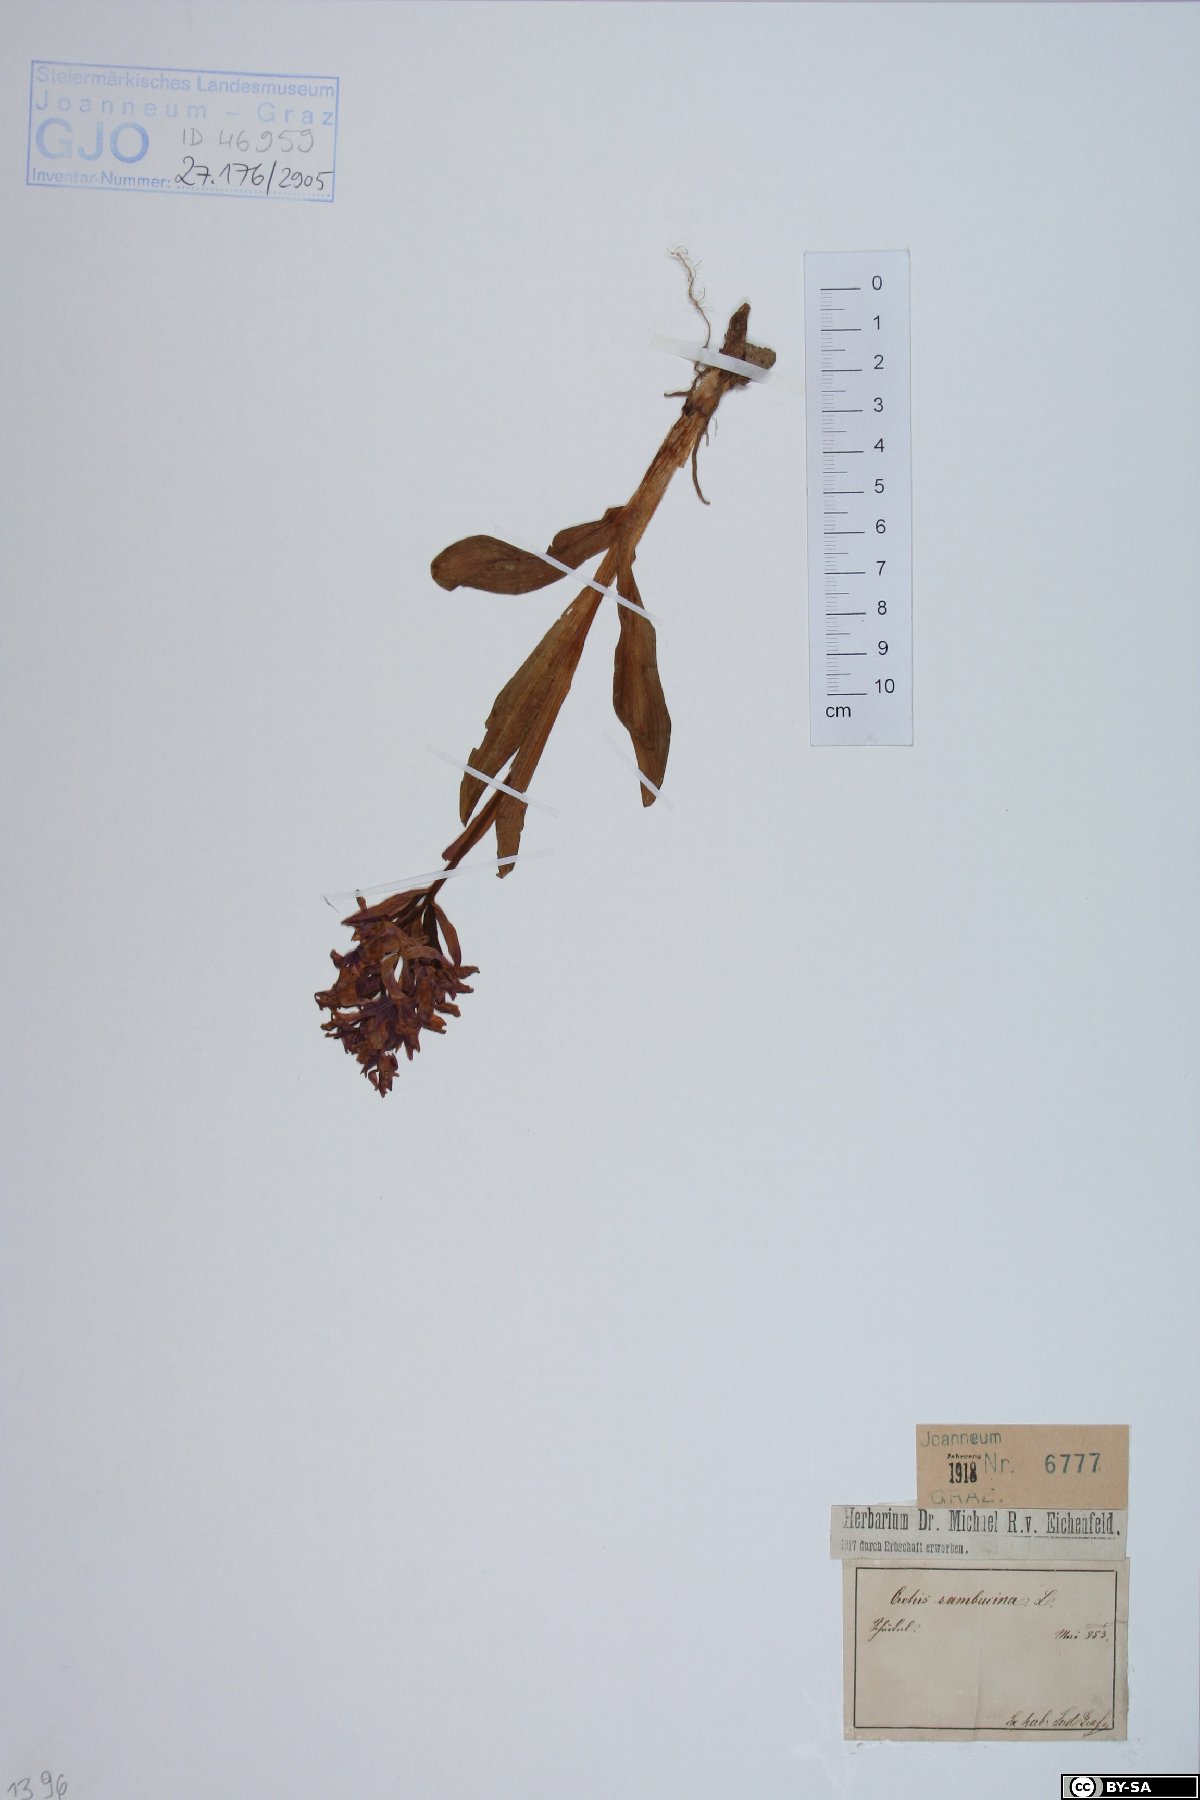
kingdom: Plantae
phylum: Tracheophyta
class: Liliopsida
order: Asparagales
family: Orchidaceae
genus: Dactylorhiza
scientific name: Dactylorhiza sambucina
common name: Elder-flowered orchid
